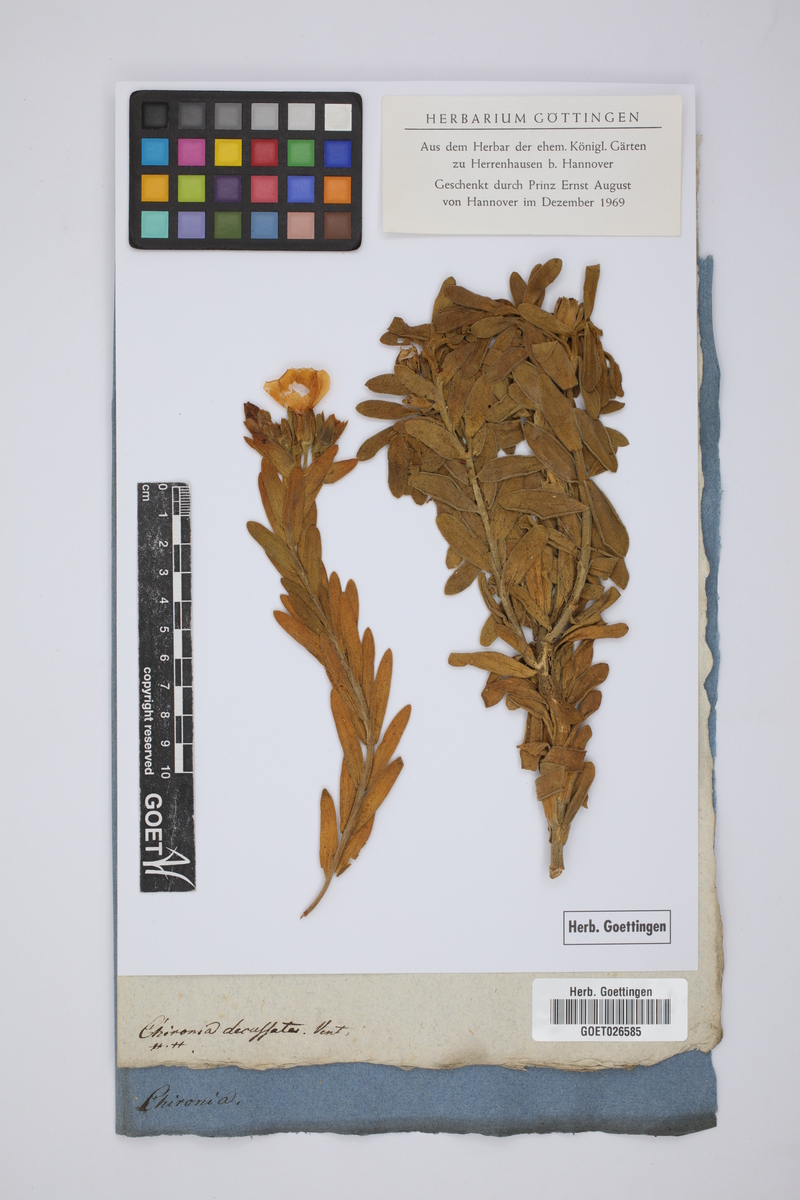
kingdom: Plantae
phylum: Tracheophyta
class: Magnoliopsida
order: Gentianales
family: Gentianaceae
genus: Orphium
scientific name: Orphium frutescens
